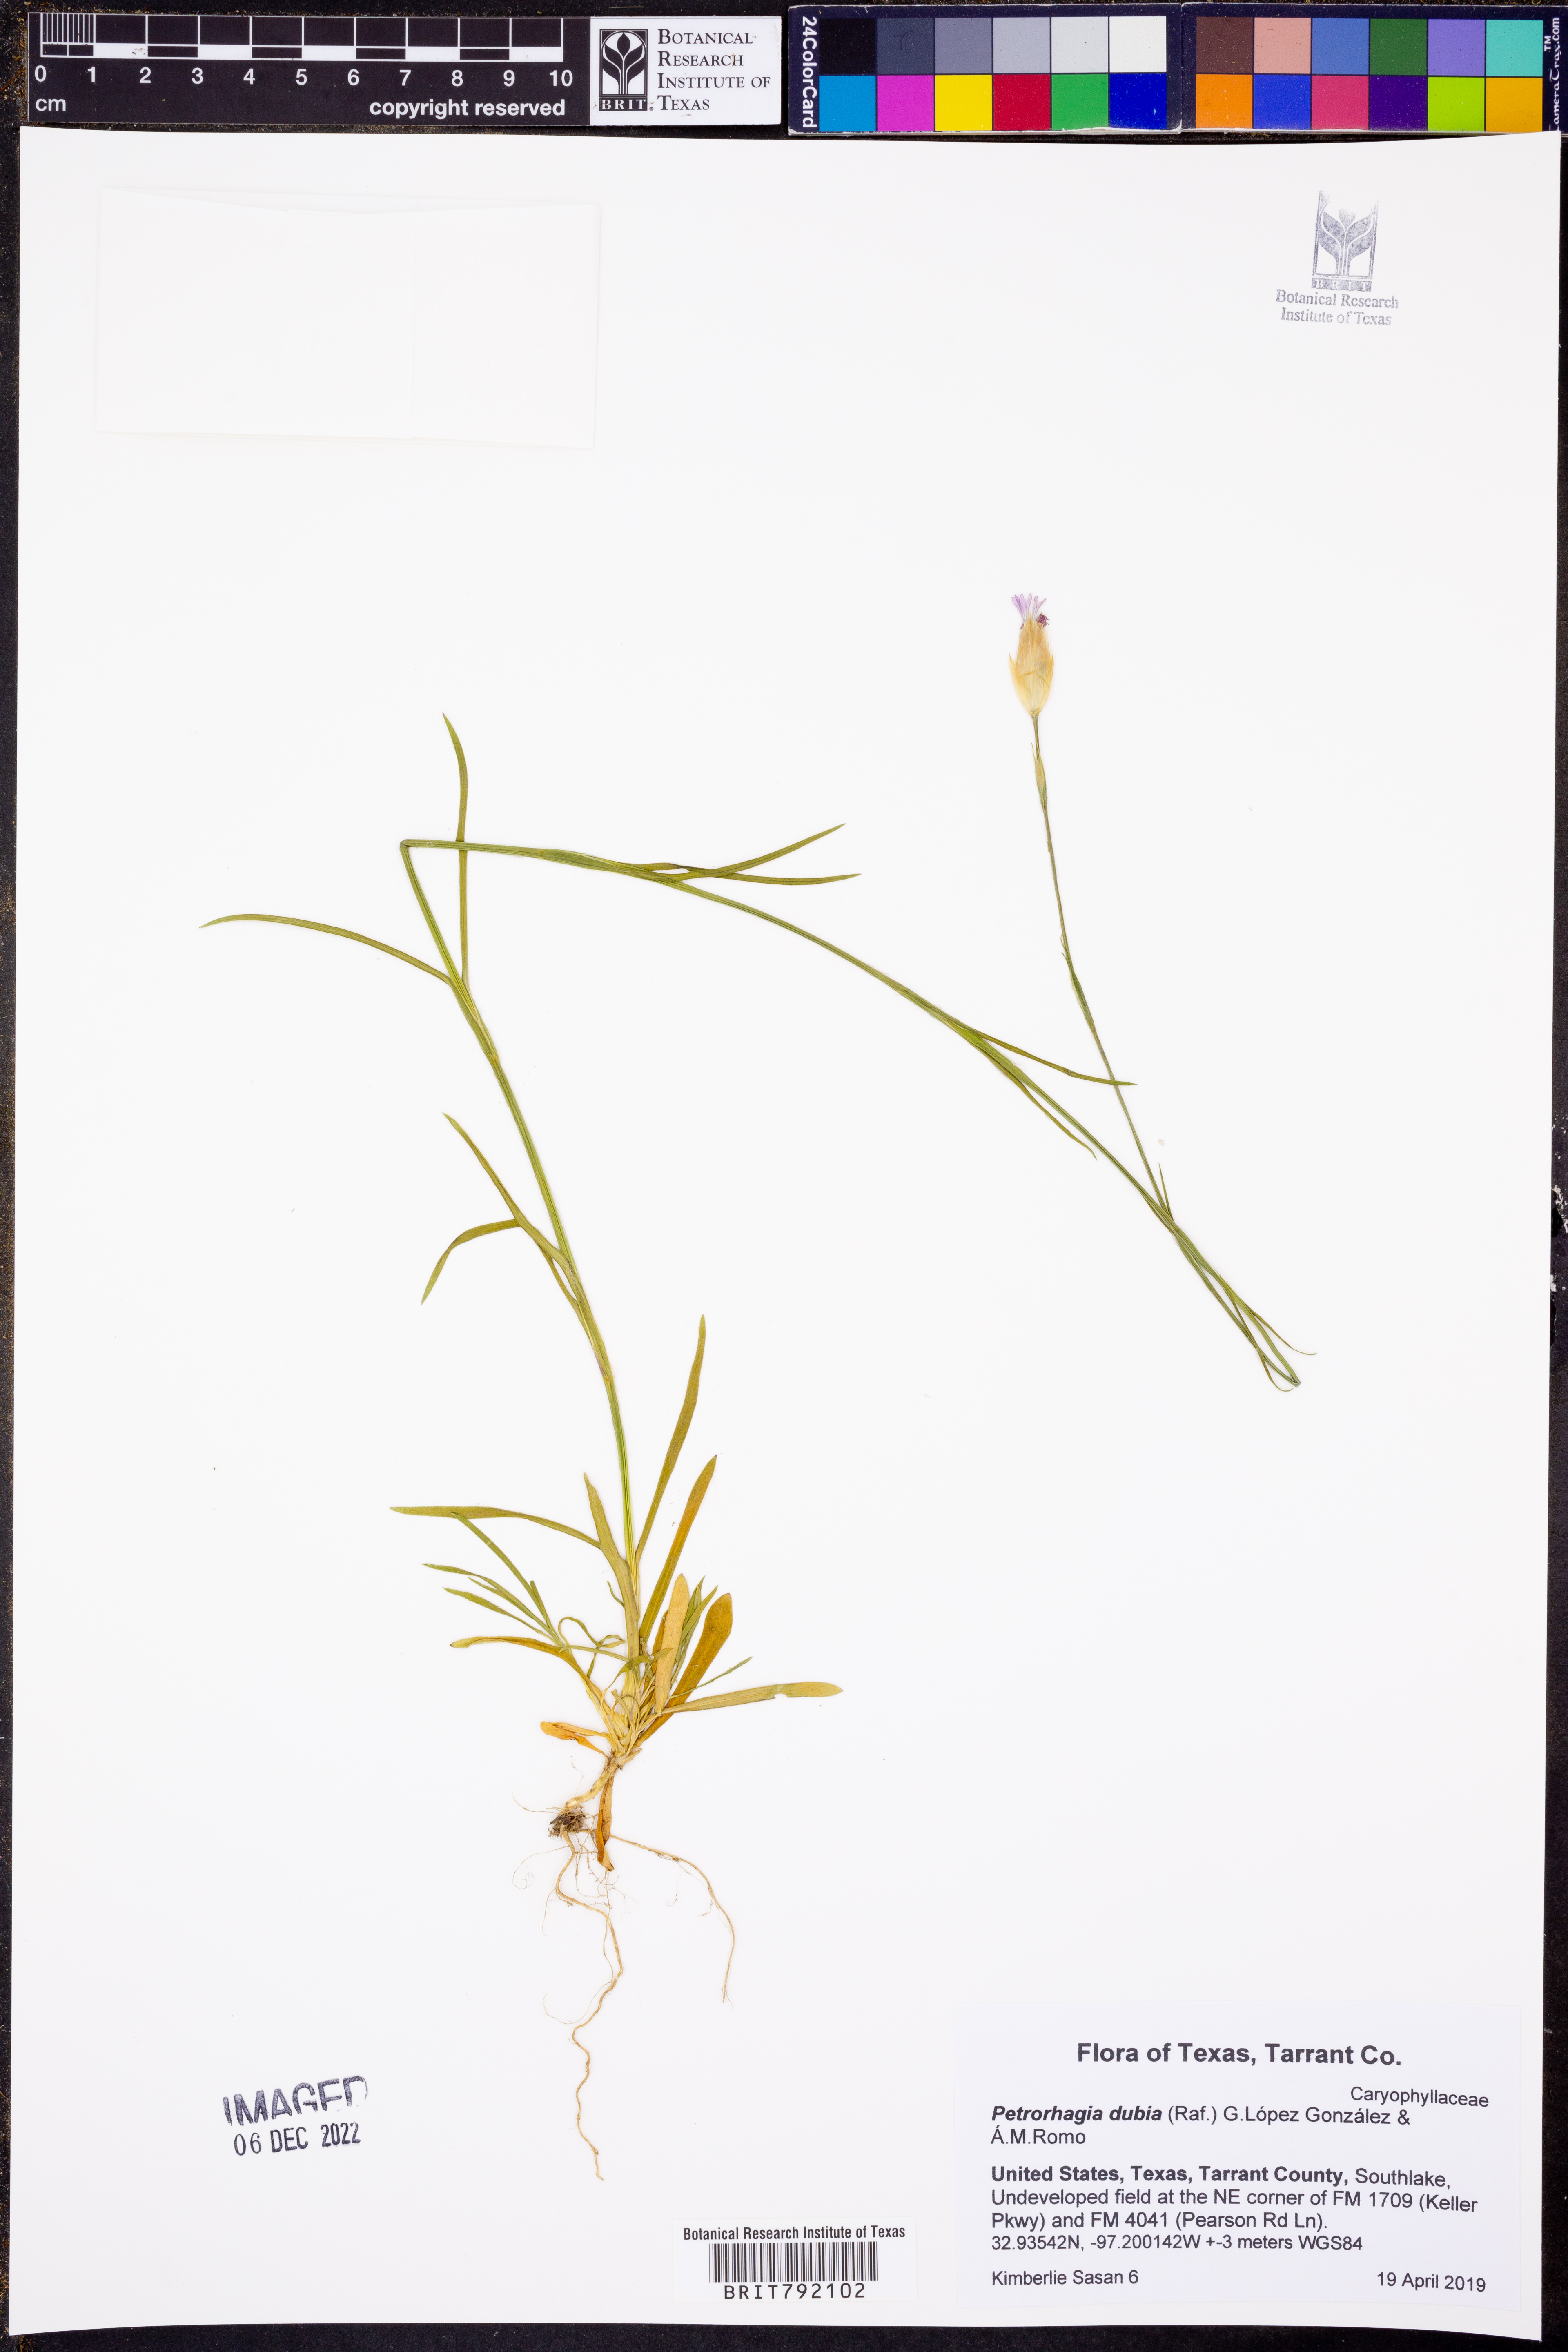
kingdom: Plantae
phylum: Tracheophyta
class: Magnoliopsida
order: Caryophyllales
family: Caryophyllaceae
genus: Petrorhagia
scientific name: Petrorhagia dubia
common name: Hairypink
